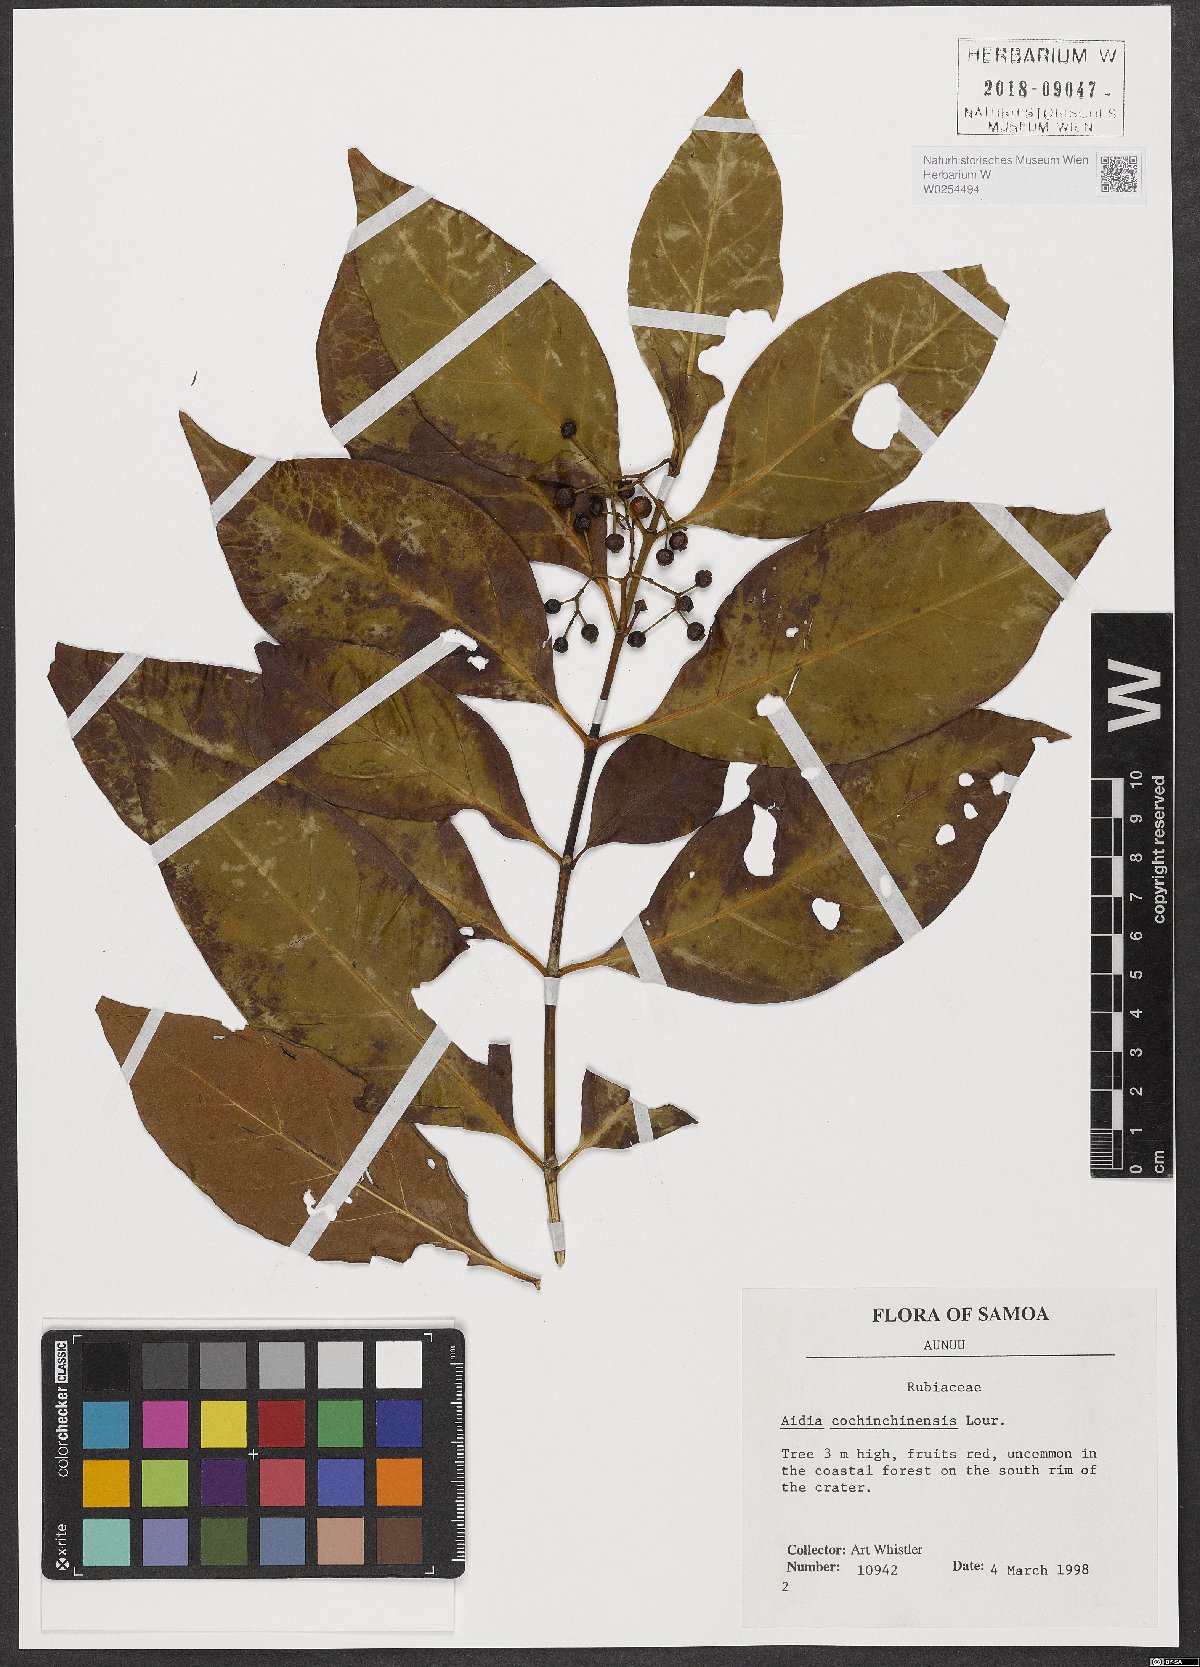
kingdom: Plantae
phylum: Tracheophyta
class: Magnoliopsida
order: Gentianales
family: Rubiaceae
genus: Aidia
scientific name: Aidia cochinchinensis
